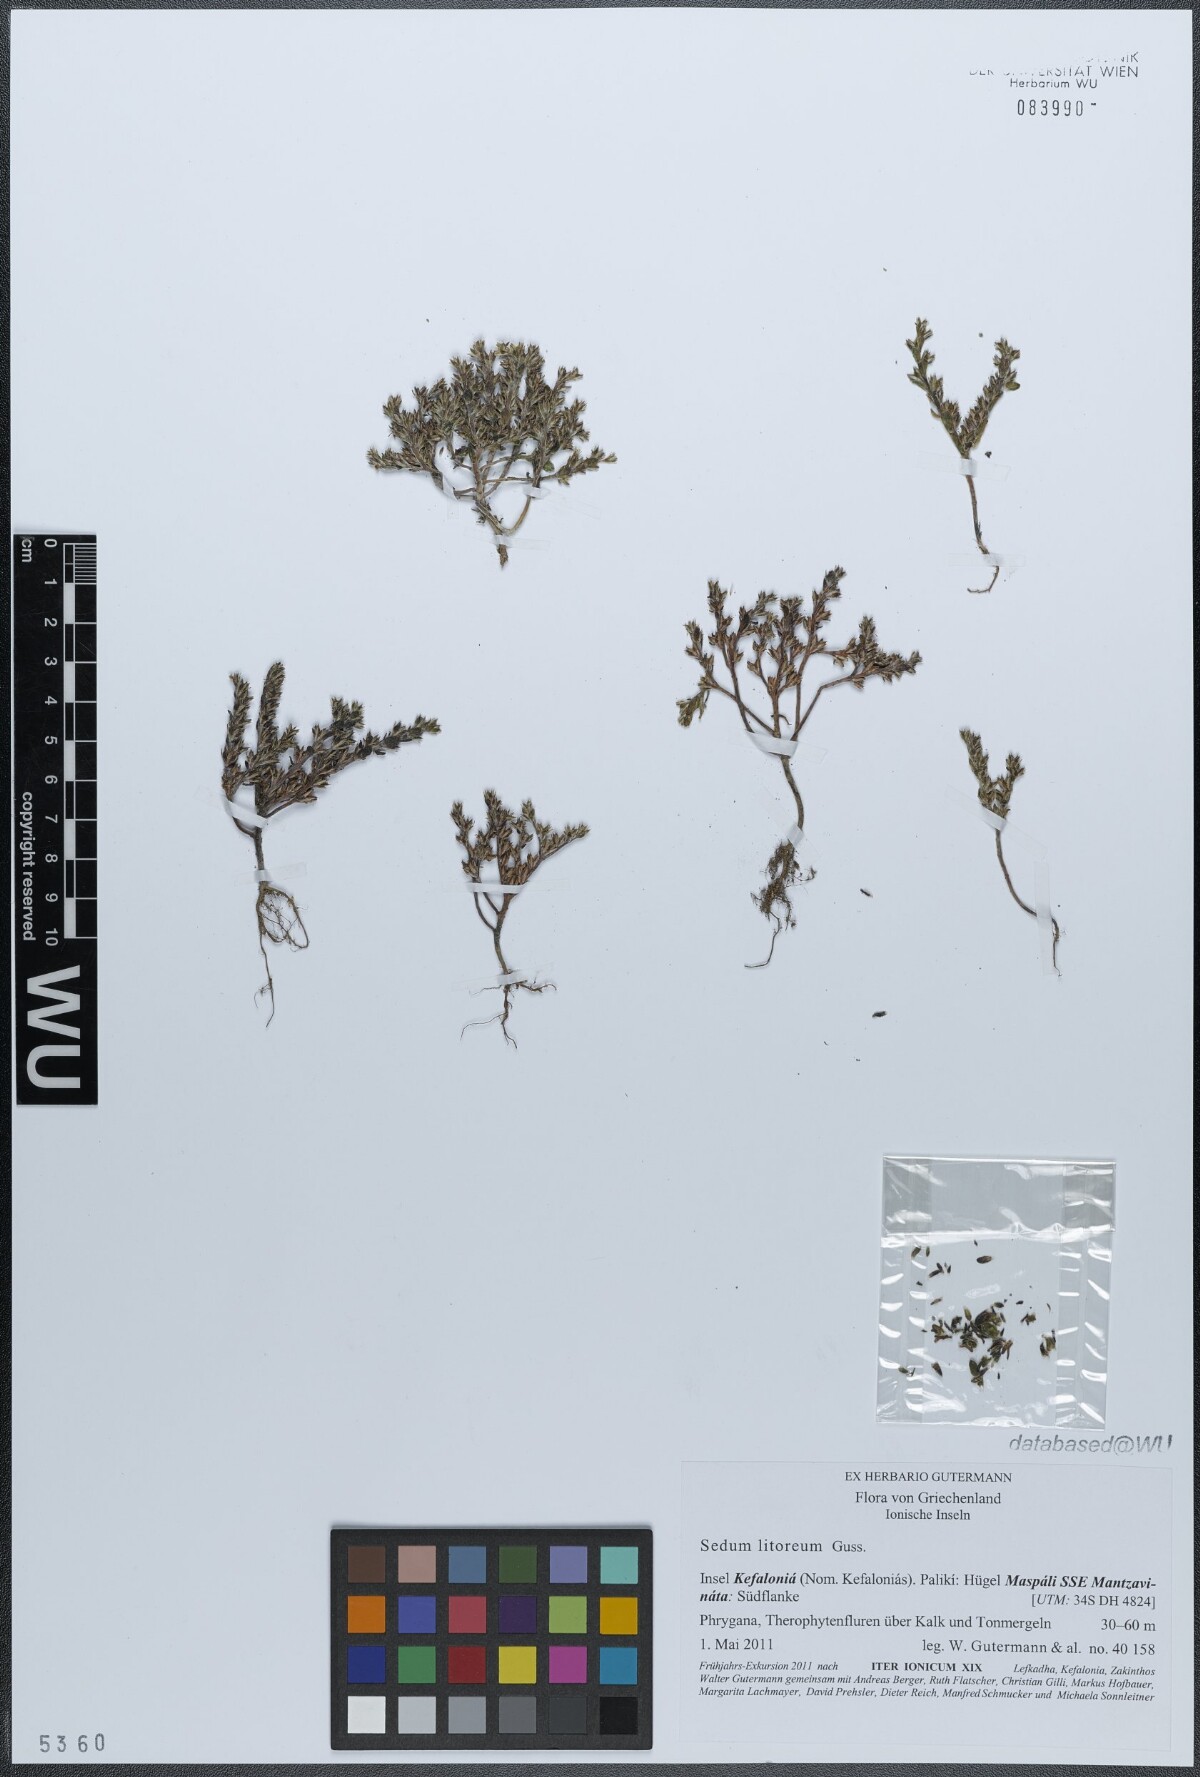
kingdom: Plantae
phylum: Tracheophyta
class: Magnoliopsida
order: Saxifragales
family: Crassulaceae
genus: Sedum
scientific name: Sedum litoreum
